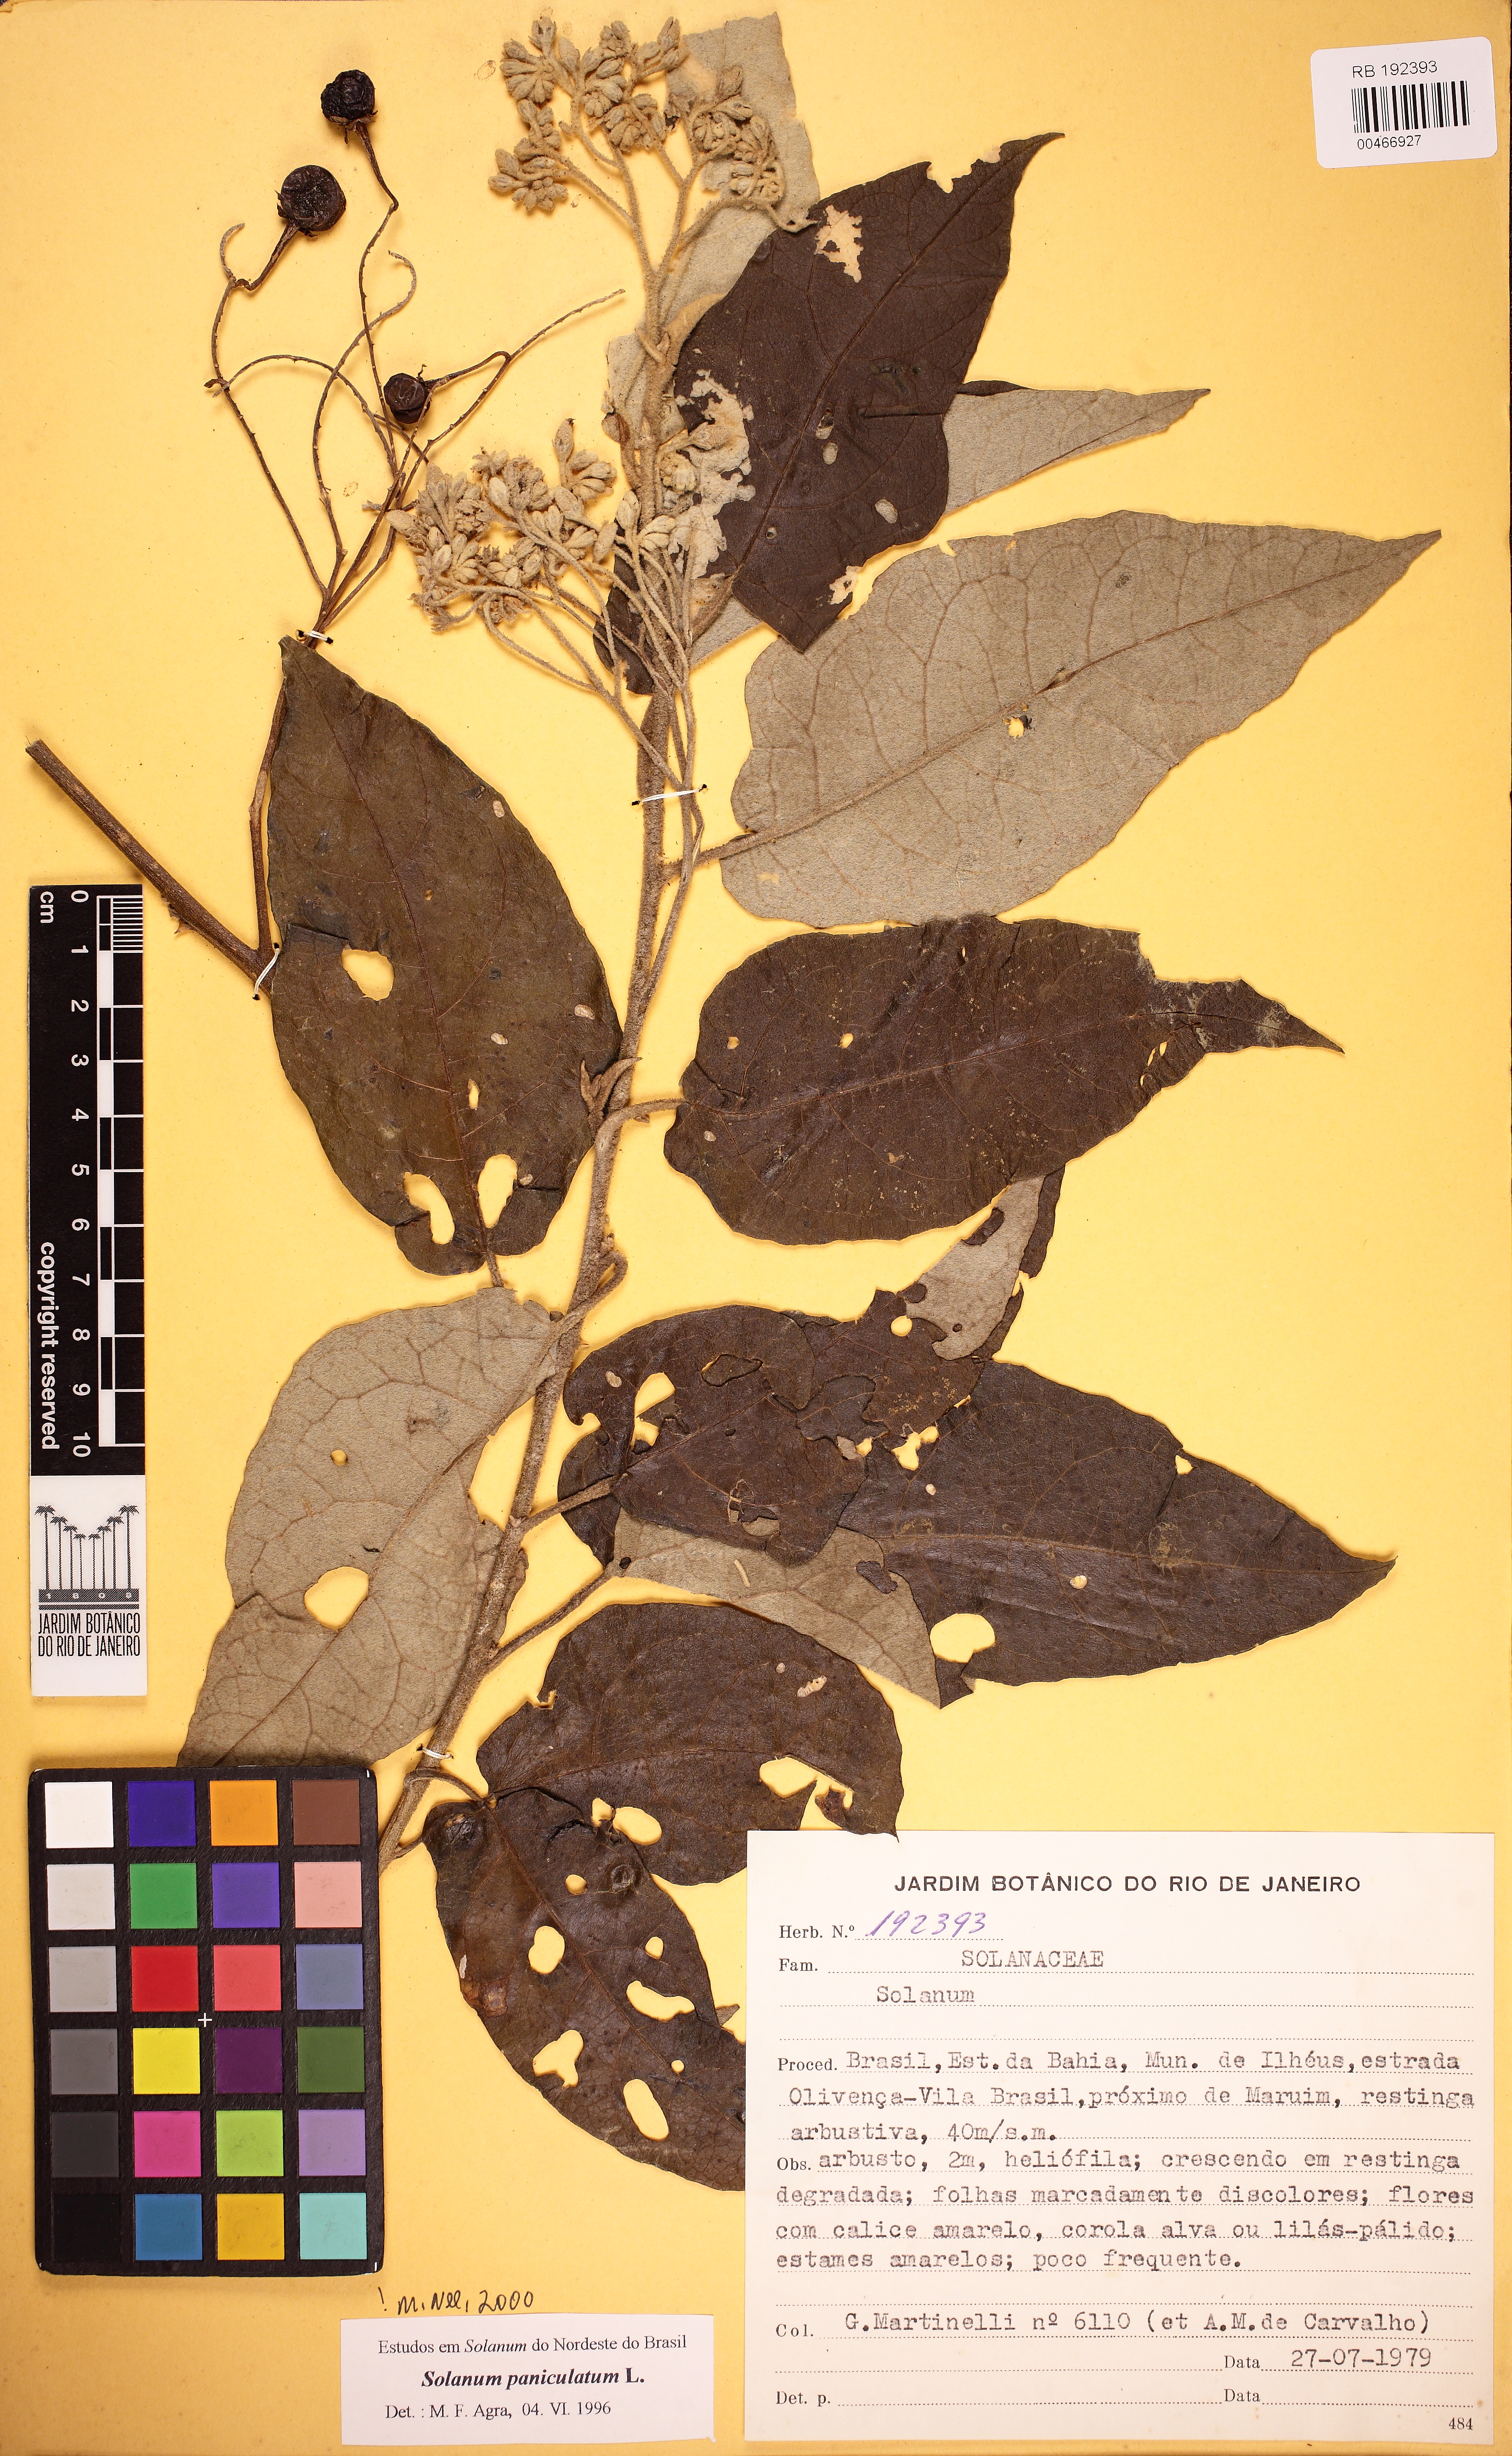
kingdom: Plantae
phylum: Tracheophyta
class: Magnoliopsida
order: Solanales
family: Solanaceae
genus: Solanum
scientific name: Solanum paniculatum
